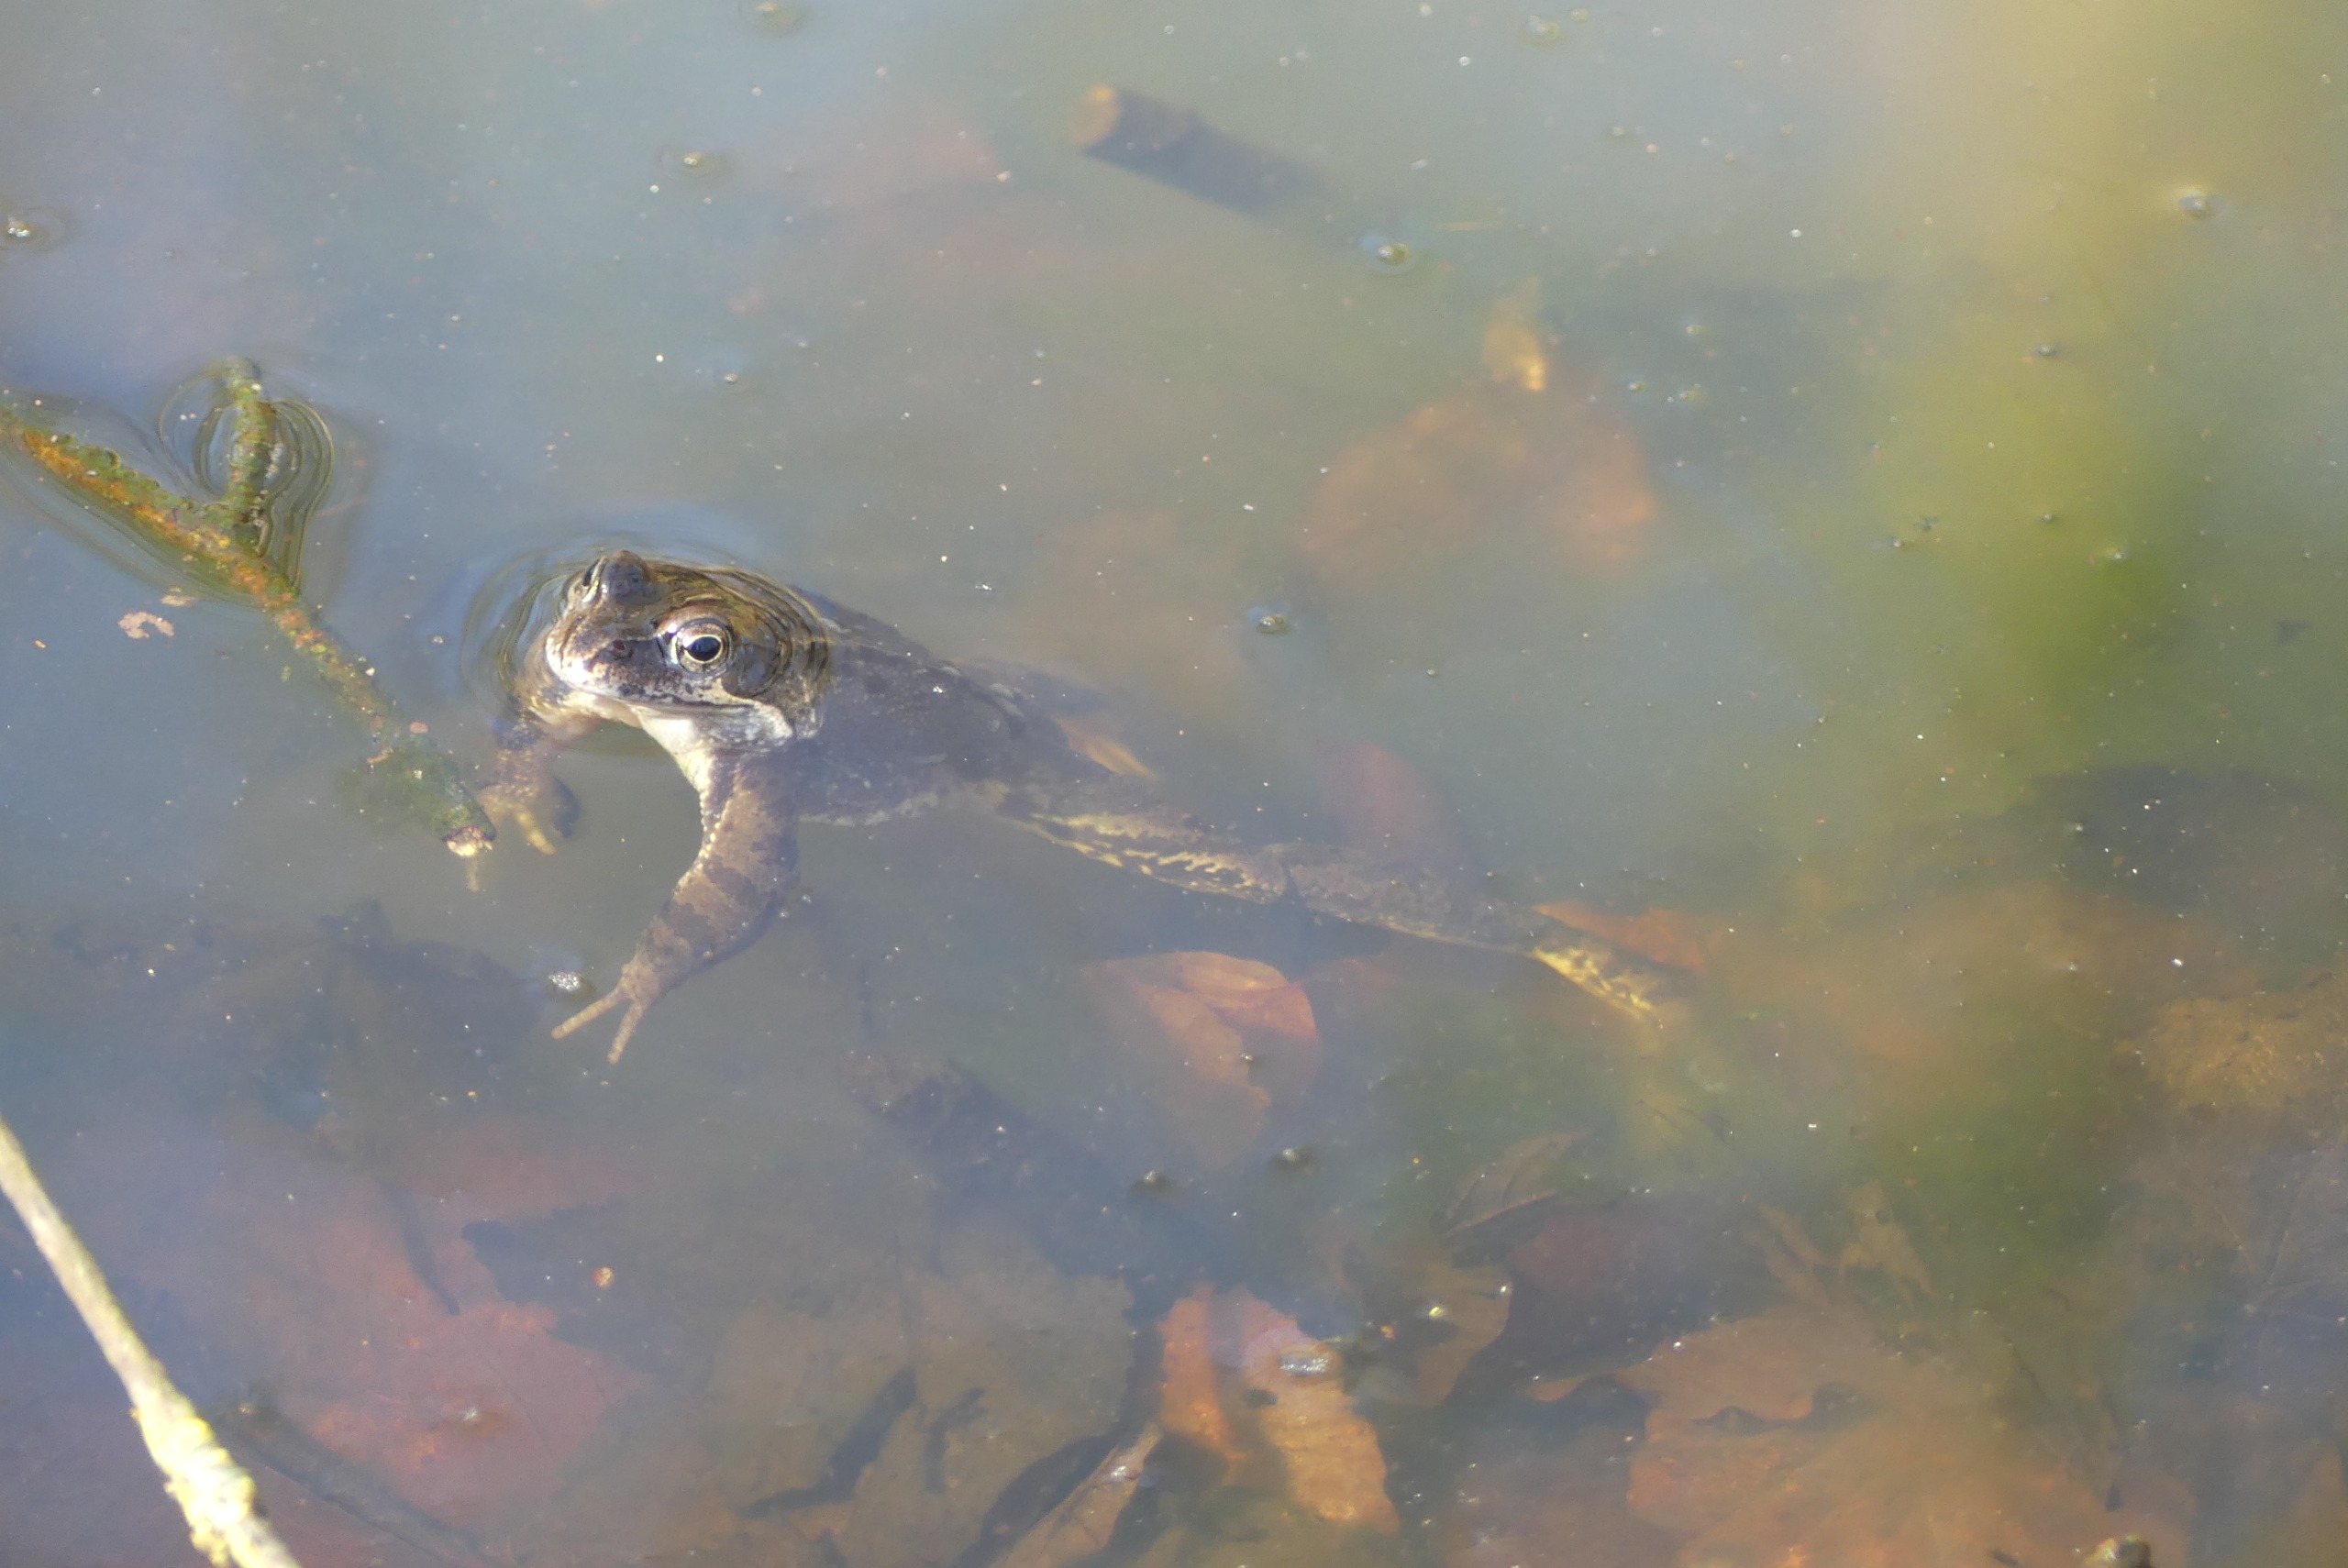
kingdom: Animalia
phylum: Chordata
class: Amphibia
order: Anura
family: Ranidae
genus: Rana
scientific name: Rana temporaria
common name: Butsnudet frø
